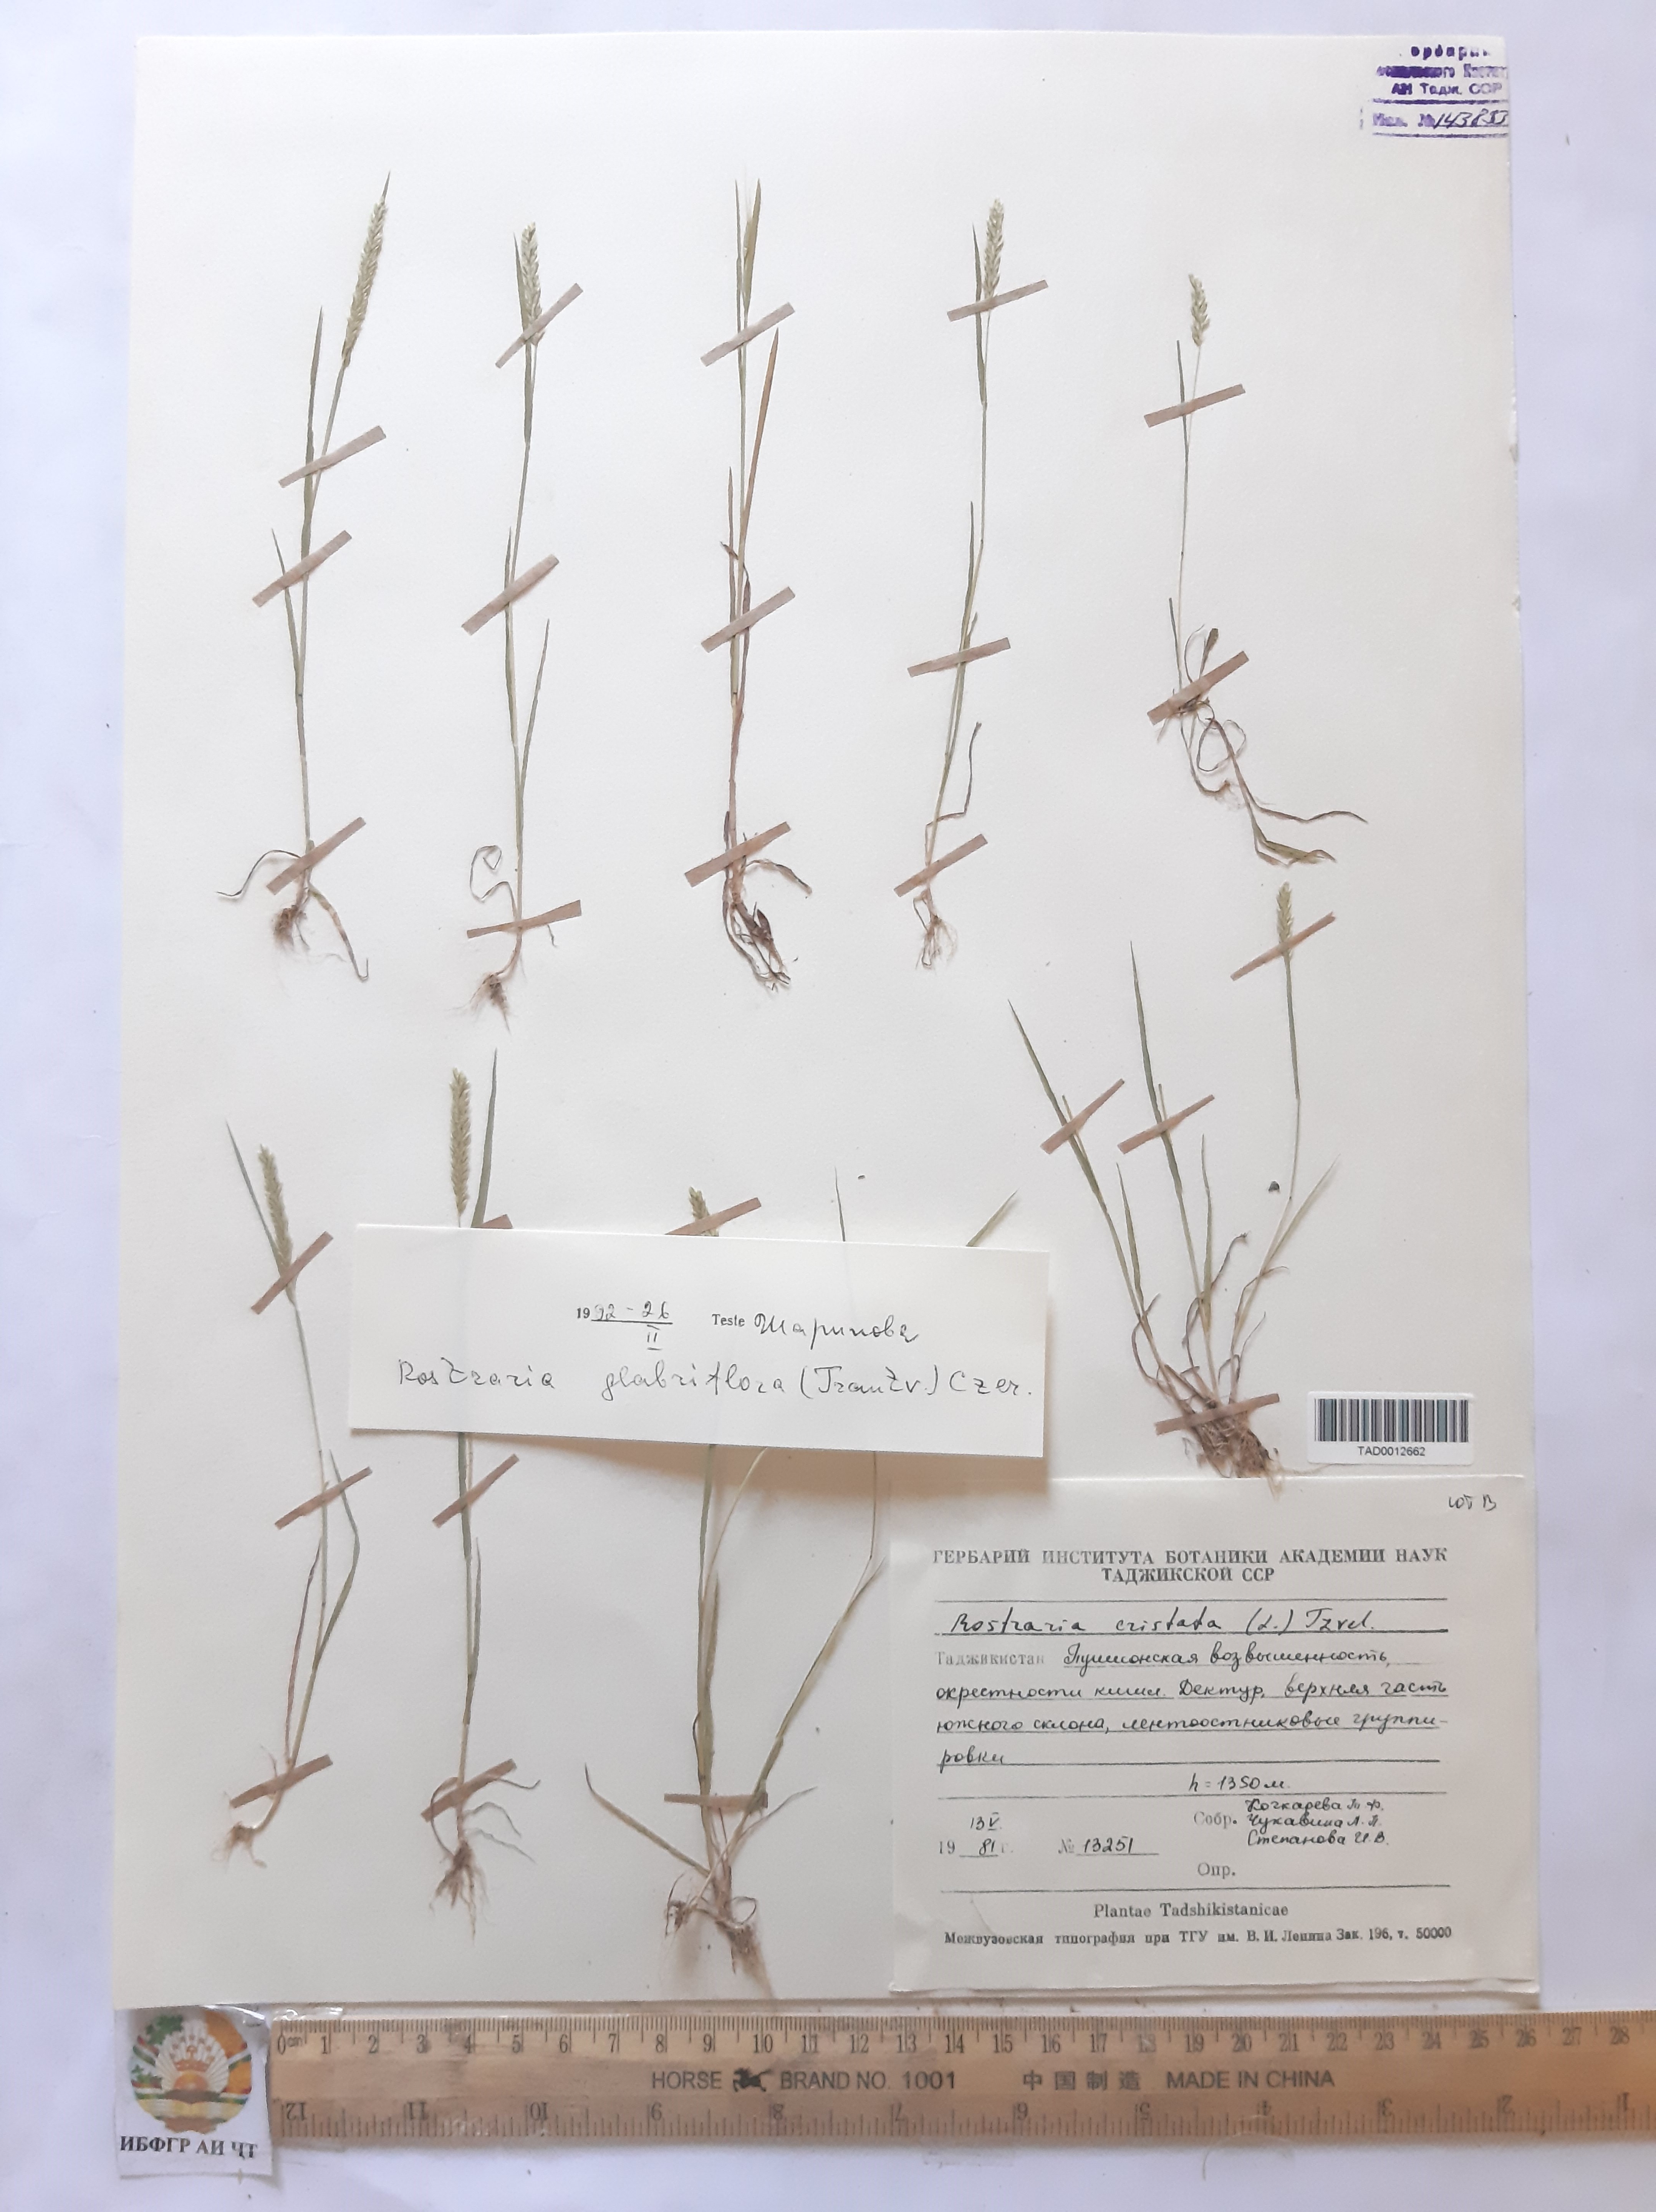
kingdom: Plantae
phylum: Tracheophyta
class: Liliopsida
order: Poales
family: Poaceae
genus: Rostraria
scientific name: Rostraria cristata
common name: Mediterranean hair-grass
